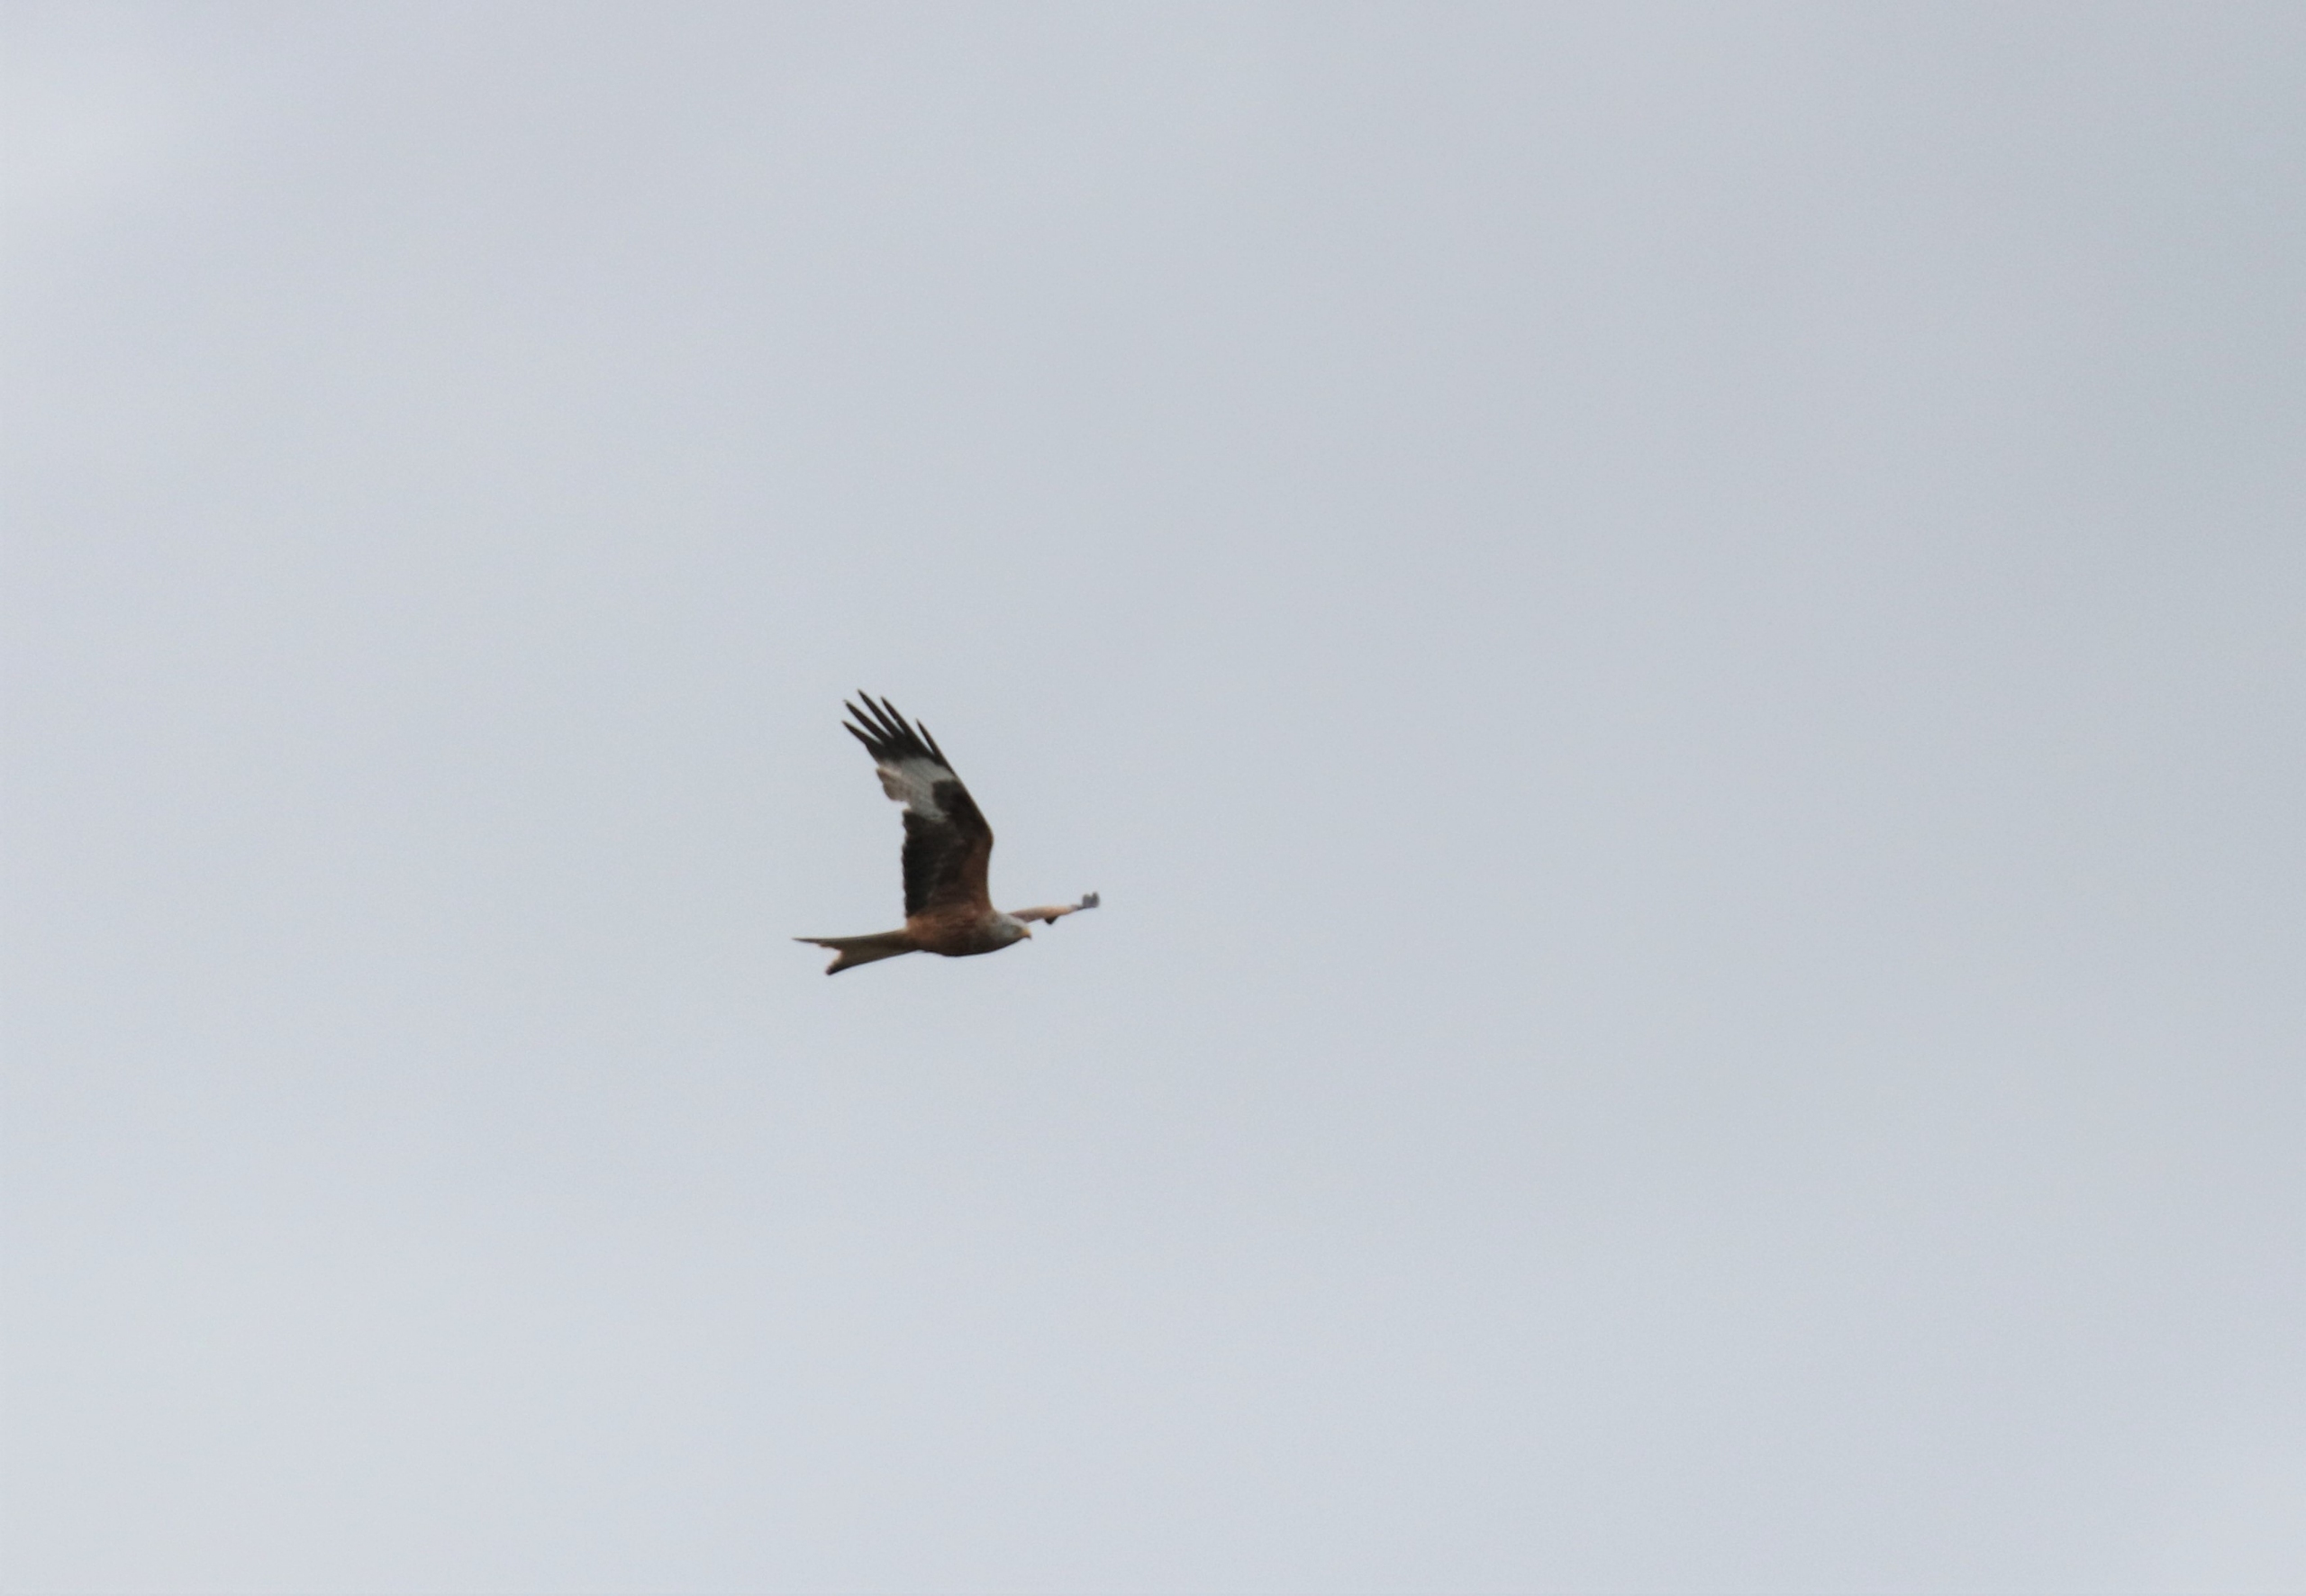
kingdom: Animalia
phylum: Chordata
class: Aves
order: Accipitriformes
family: Accipitridae
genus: Milvus
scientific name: Milvus milvus
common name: Rød glente
